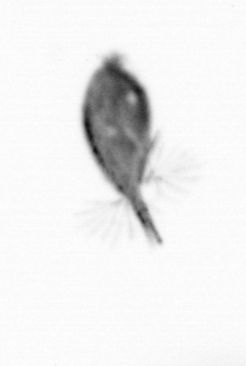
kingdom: Animalia
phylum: Arthropoda
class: Maxillopoda
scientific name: Maxillopoda
